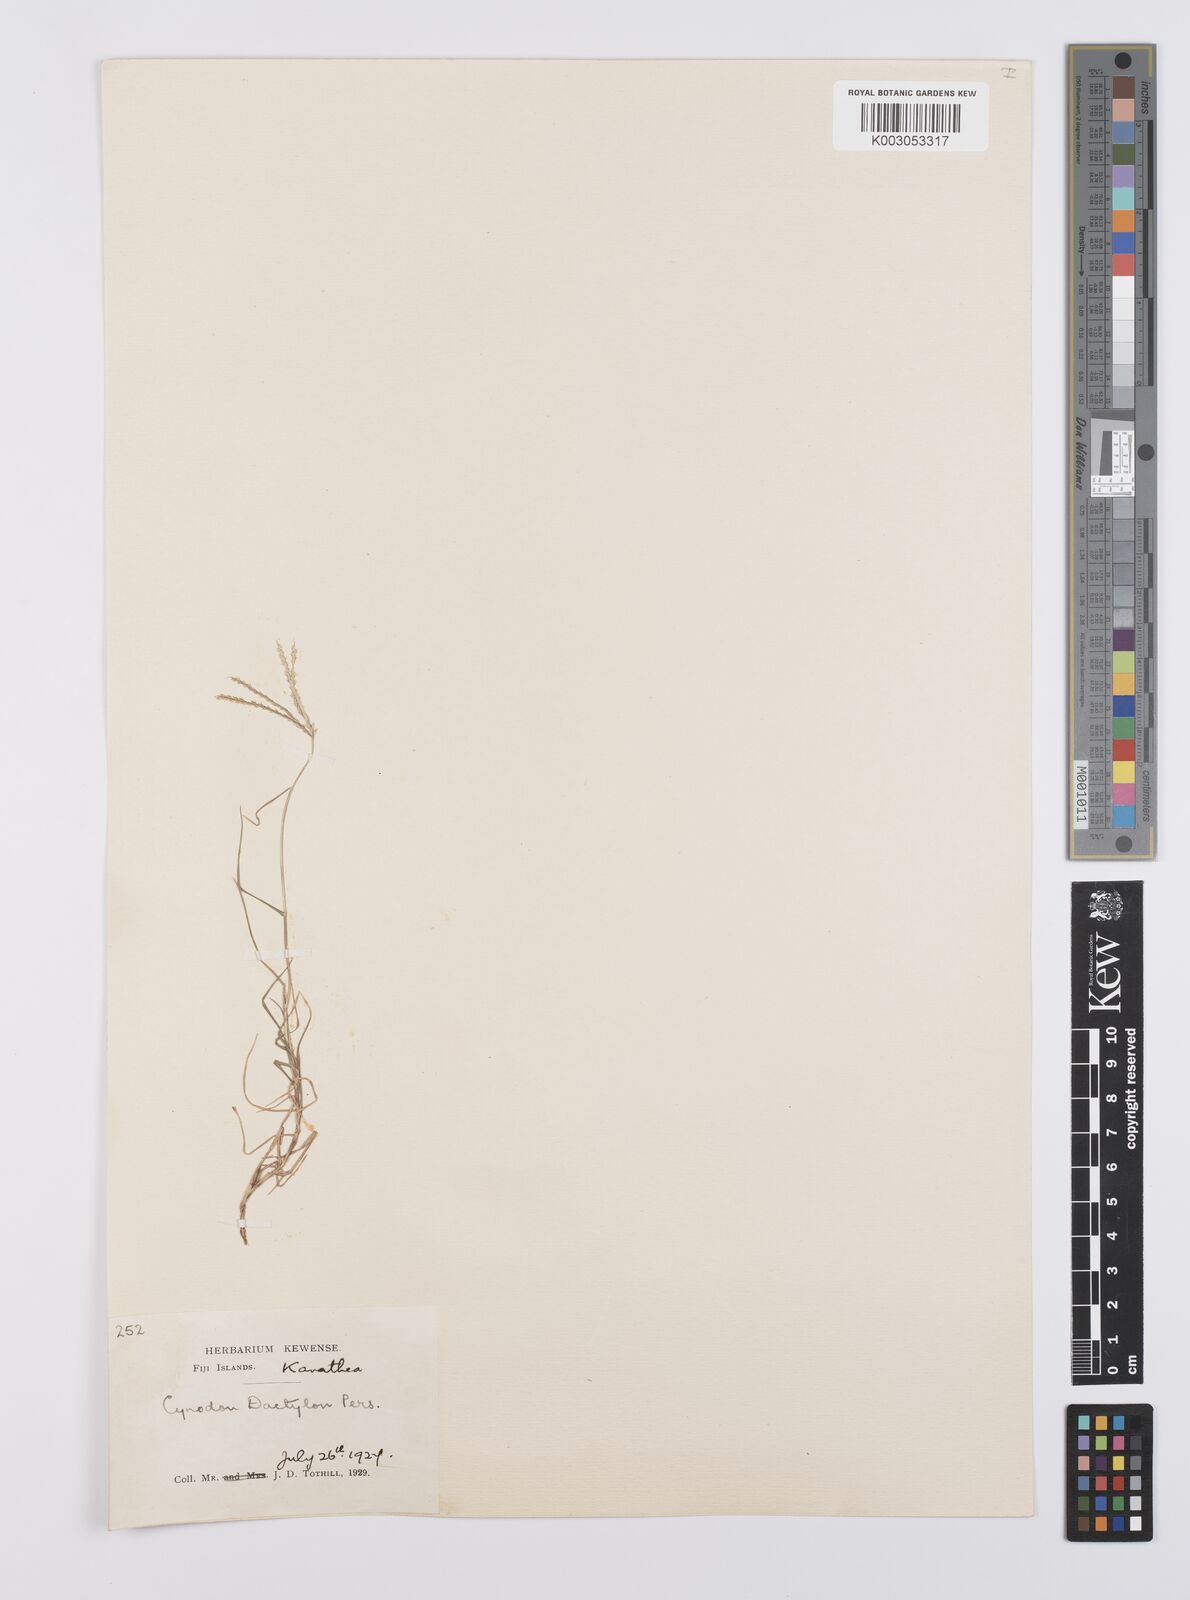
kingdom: Plantae
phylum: Tracheophyta
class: Liliopsida
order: Poales
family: Poaceae
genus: Cynodon
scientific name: Cynodon dactylon
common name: Bermuda grass
